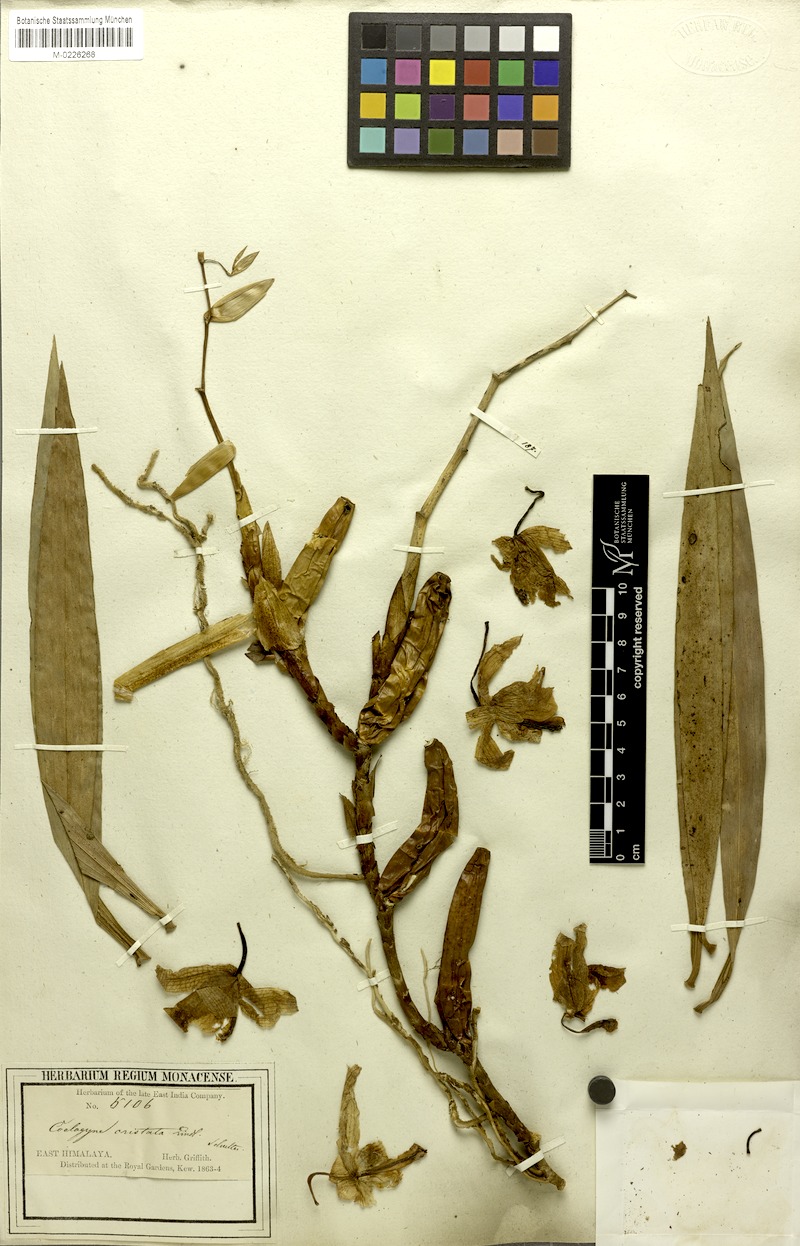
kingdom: Plantae
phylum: Tracheophyta
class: Liliopsida
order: Asparagales
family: Orchidaceae
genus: Coelogyne
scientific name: Coelogyne cristata
